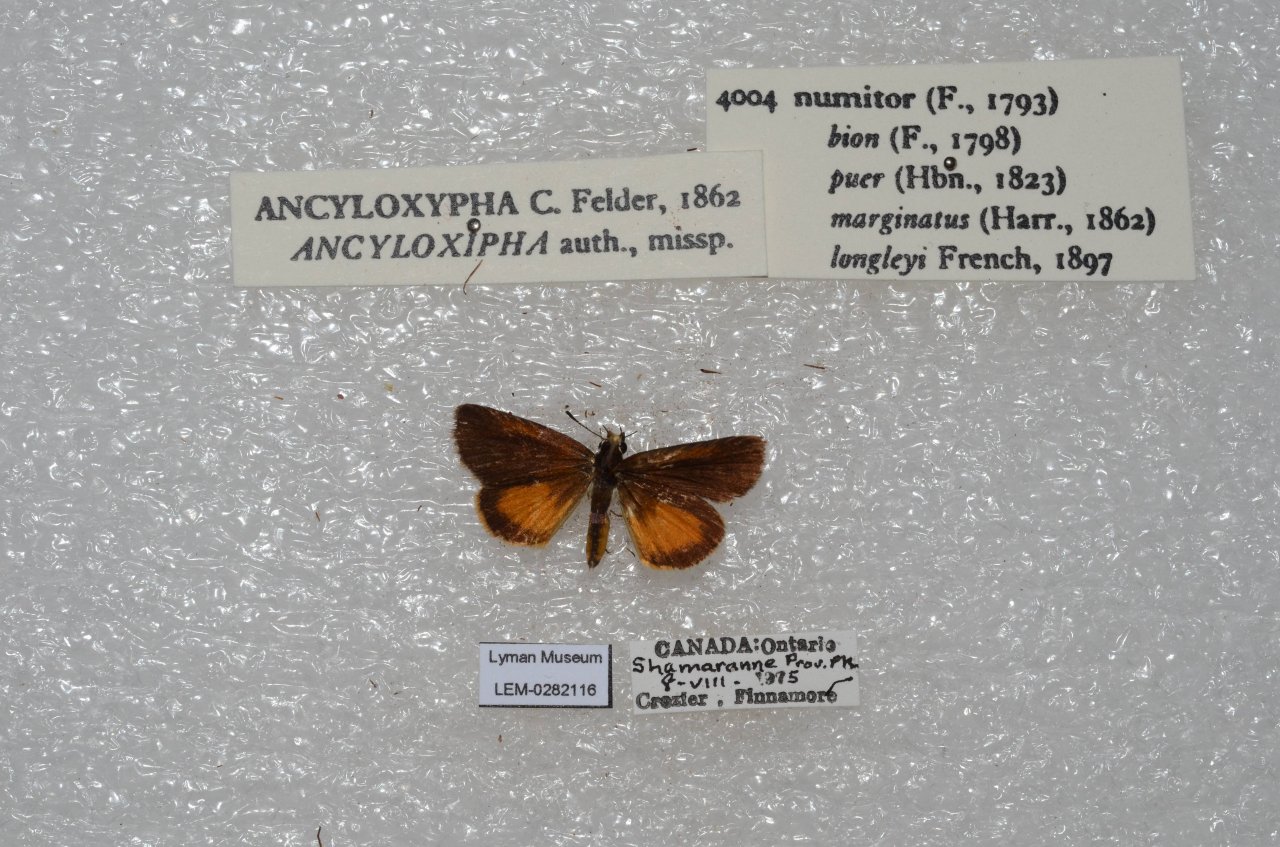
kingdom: Animalia
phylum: Arthropoda
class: Insecta
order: Lepidoptera
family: Hesperiidae
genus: Ancyloxypha
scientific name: Ancyloxypha numitor
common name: Least Skipper
